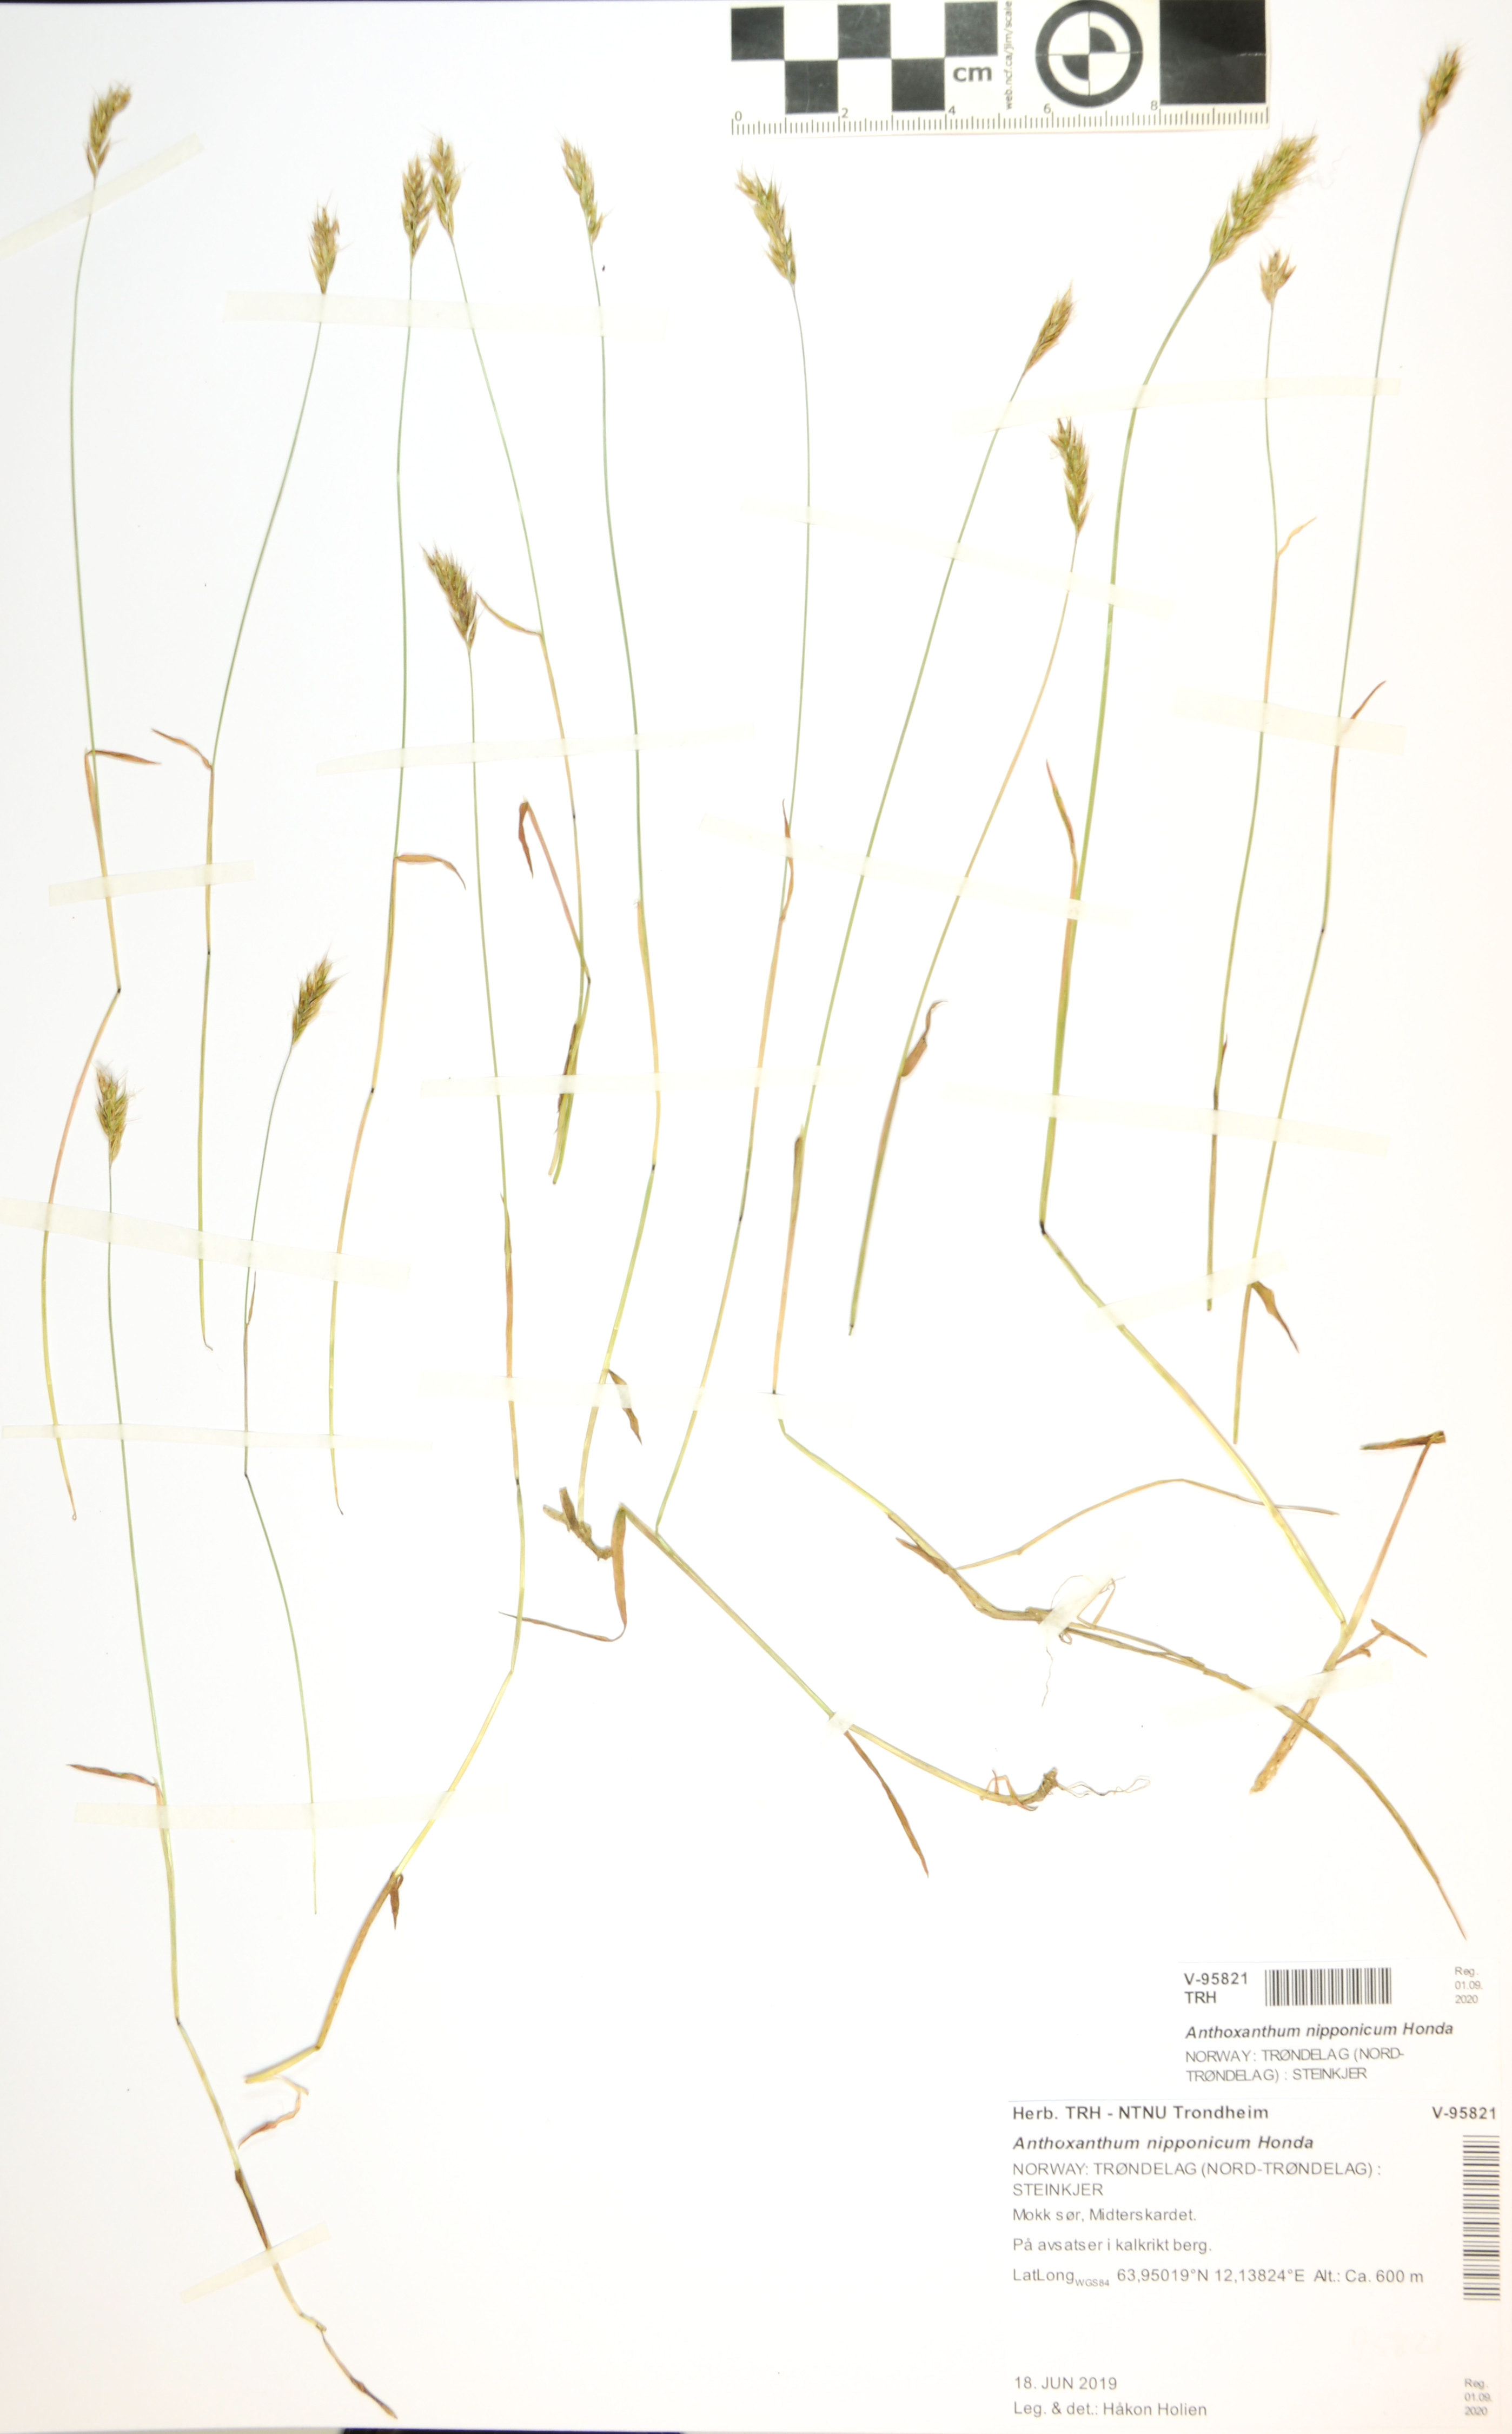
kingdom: Plantae
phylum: Tracheophyta
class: Liliopsida
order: Poales
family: Poaceae
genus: Anthoxanthum
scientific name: Anthoxanthum nipponicum
